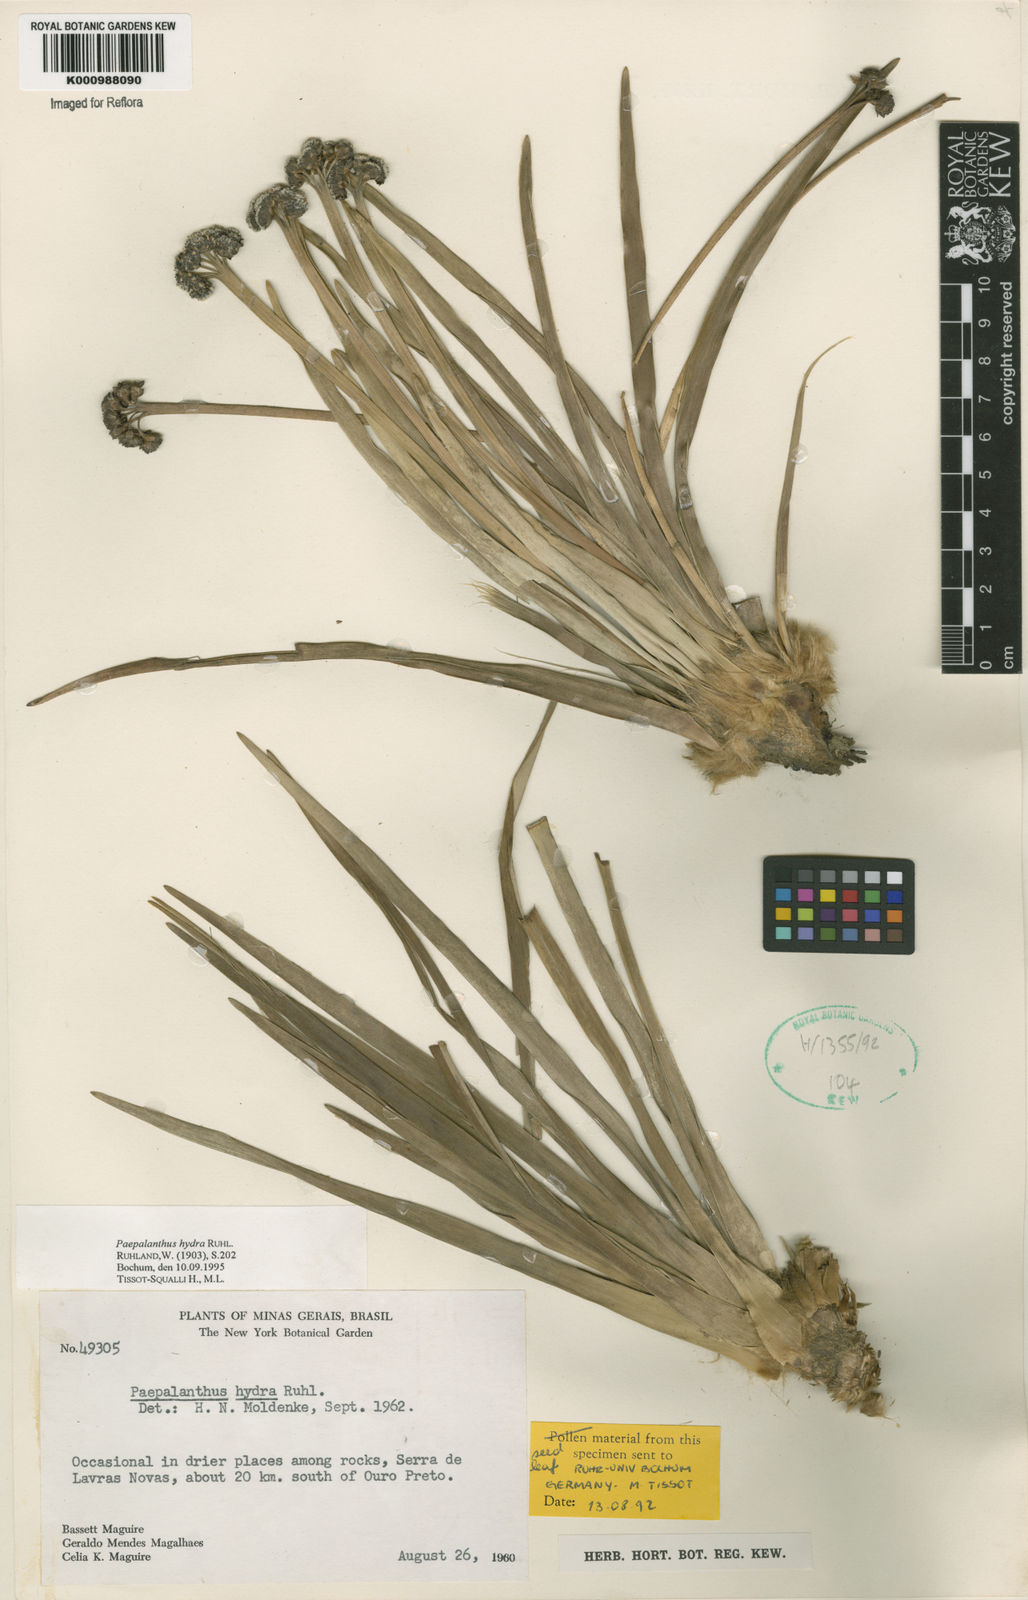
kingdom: Plantae
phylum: Tracheophyta
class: Liliopsida
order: Poales
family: Eriocaulaceae
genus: Paepalanthus
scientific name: Paepalanthus hydra
